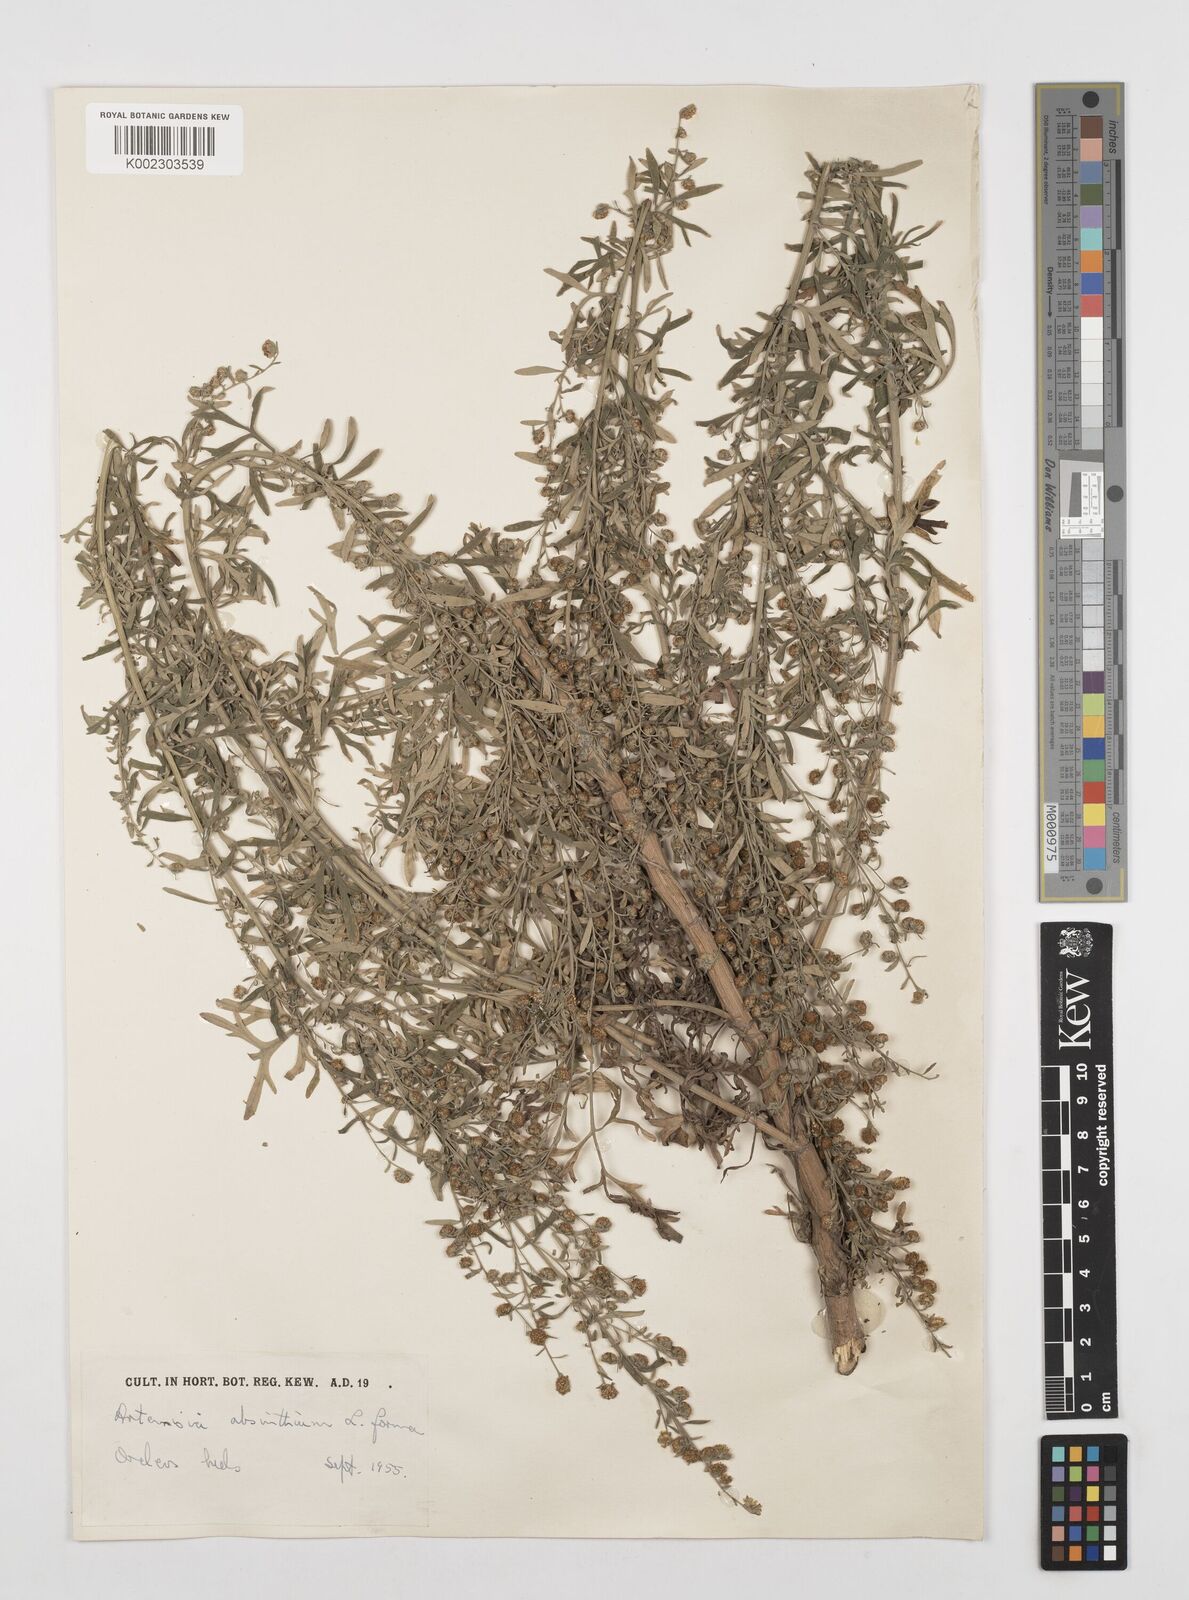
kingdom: Plantae
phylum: Tracheophyta
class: Magnoliopsida
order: Asterales
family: Asteraceae
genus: Artemisia
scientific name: Artemisia absinthium
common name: Wormwood
